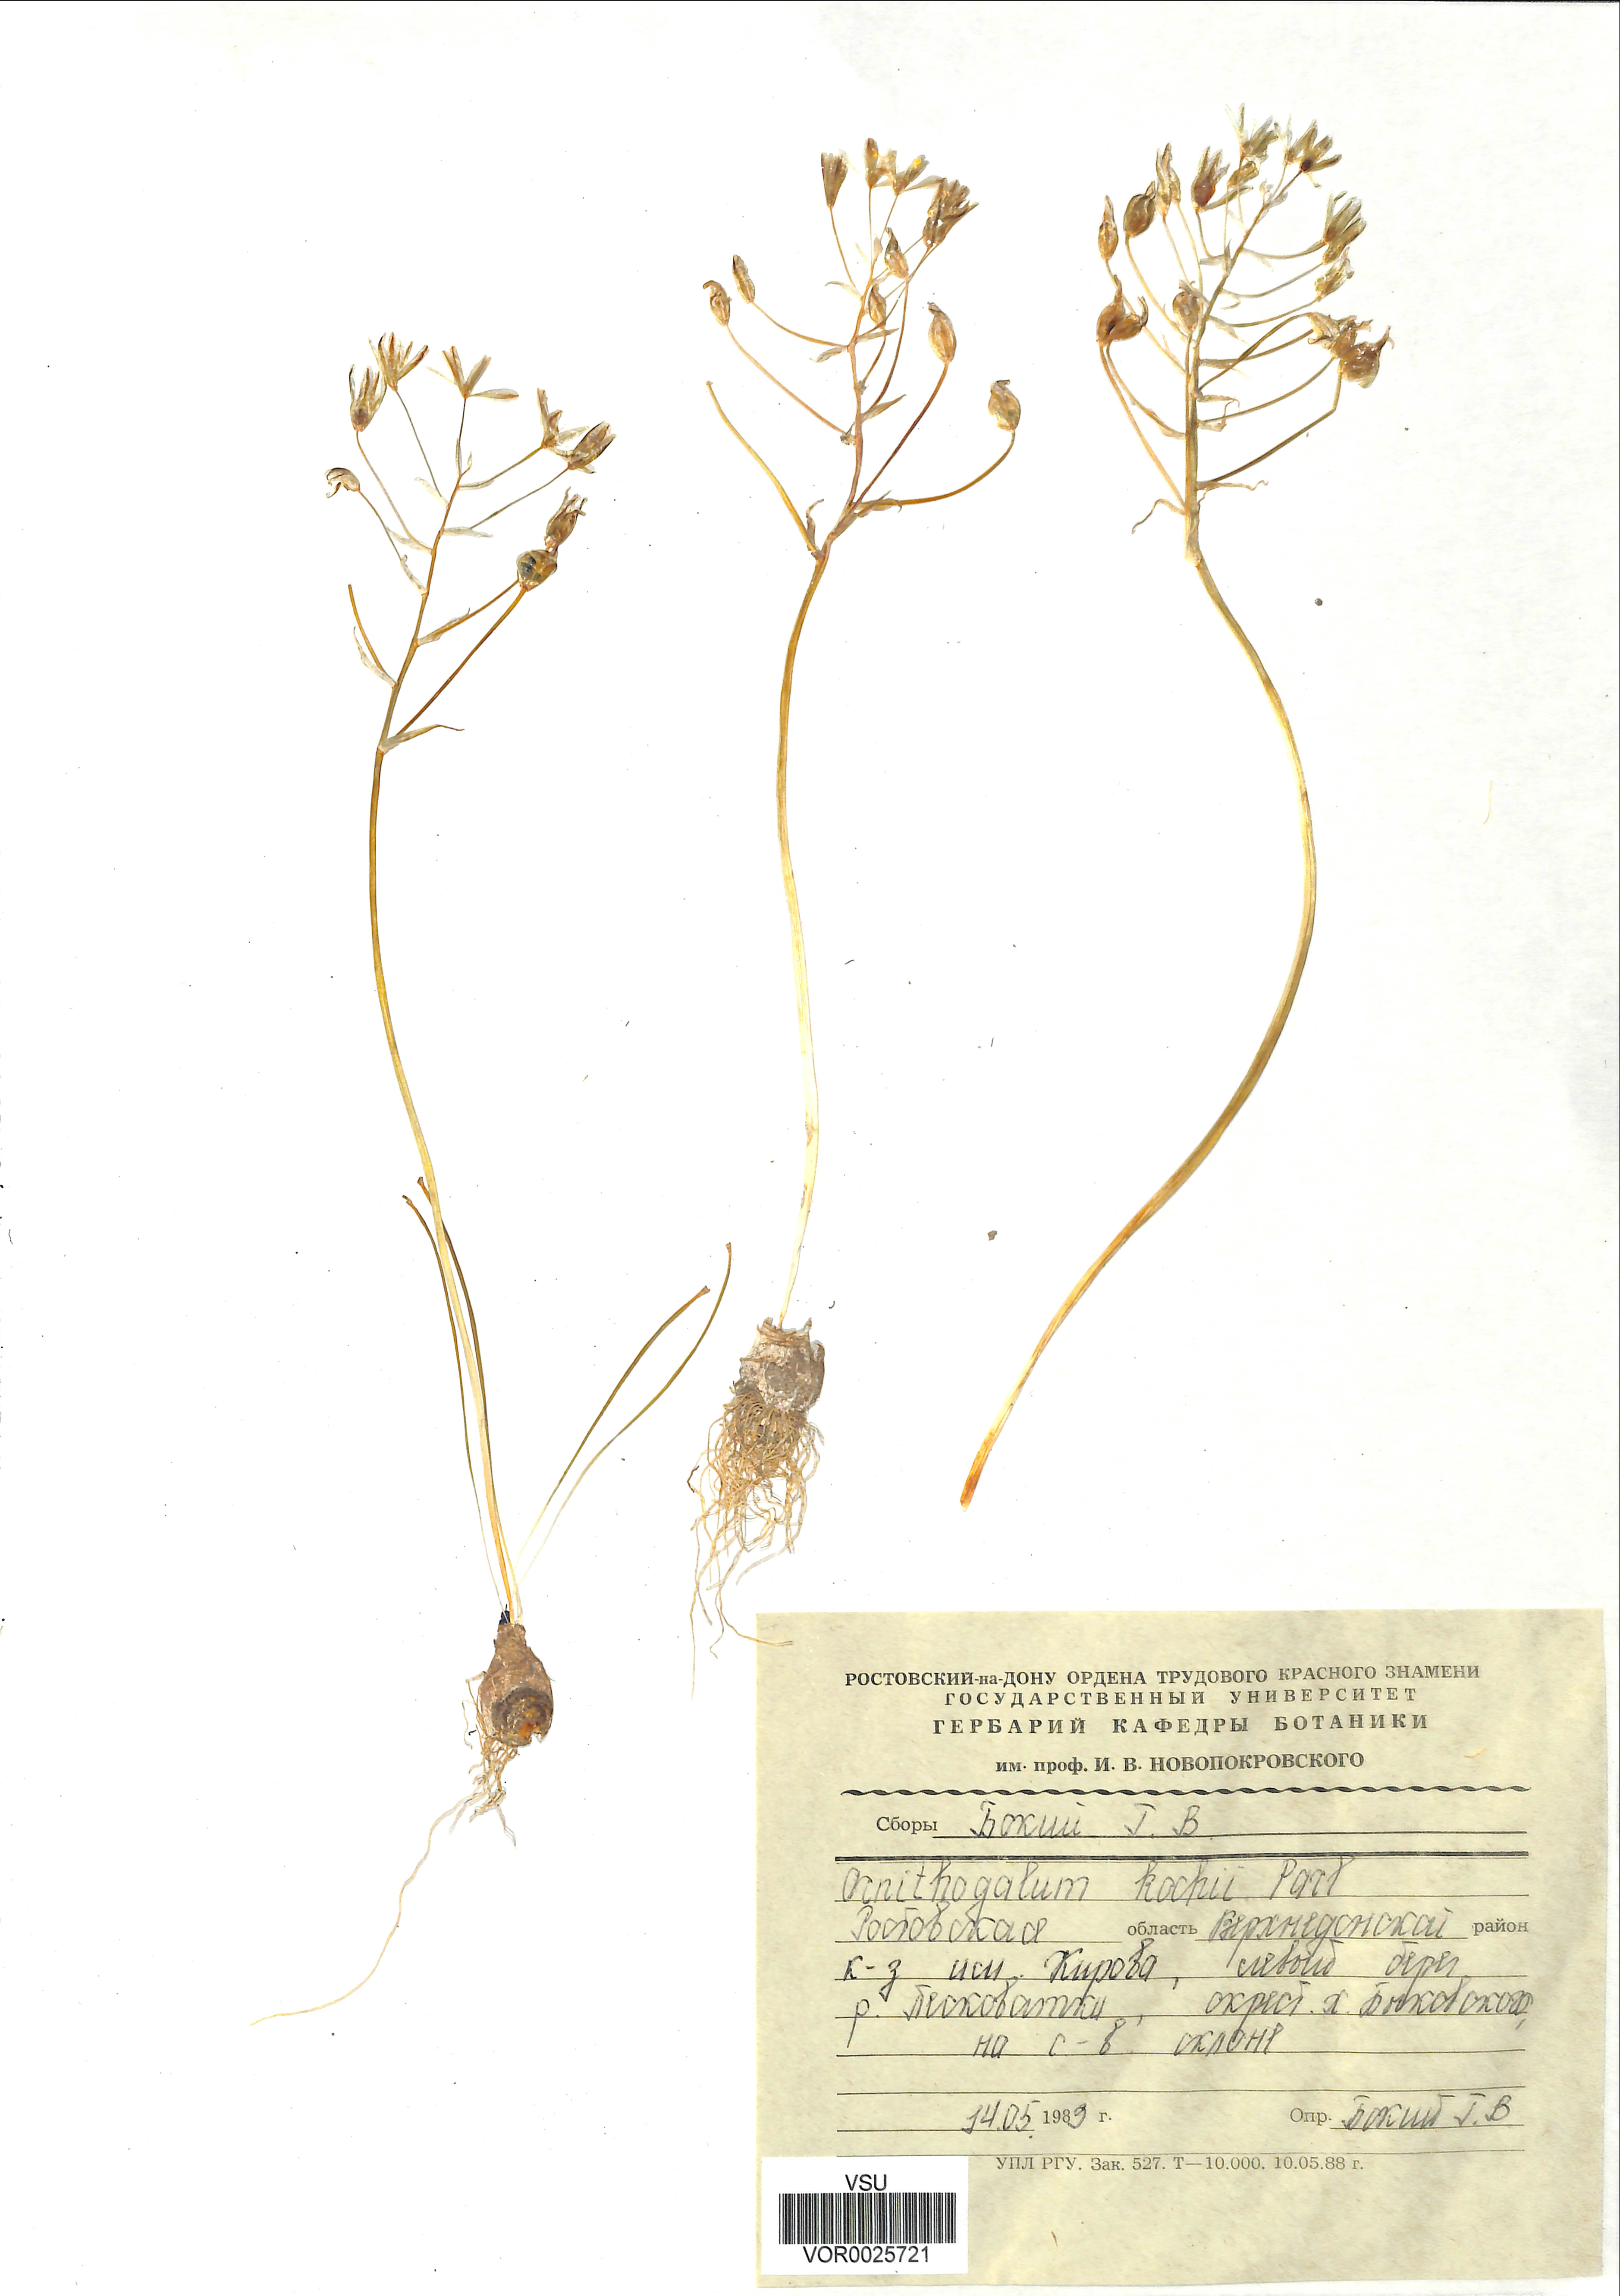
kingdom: Plantae
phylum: Tracheophyta
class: Liliopsida
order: Asparagales
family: Asparagaceae
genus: Ornithogalum
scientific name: Ornithogalum orthophyllum
